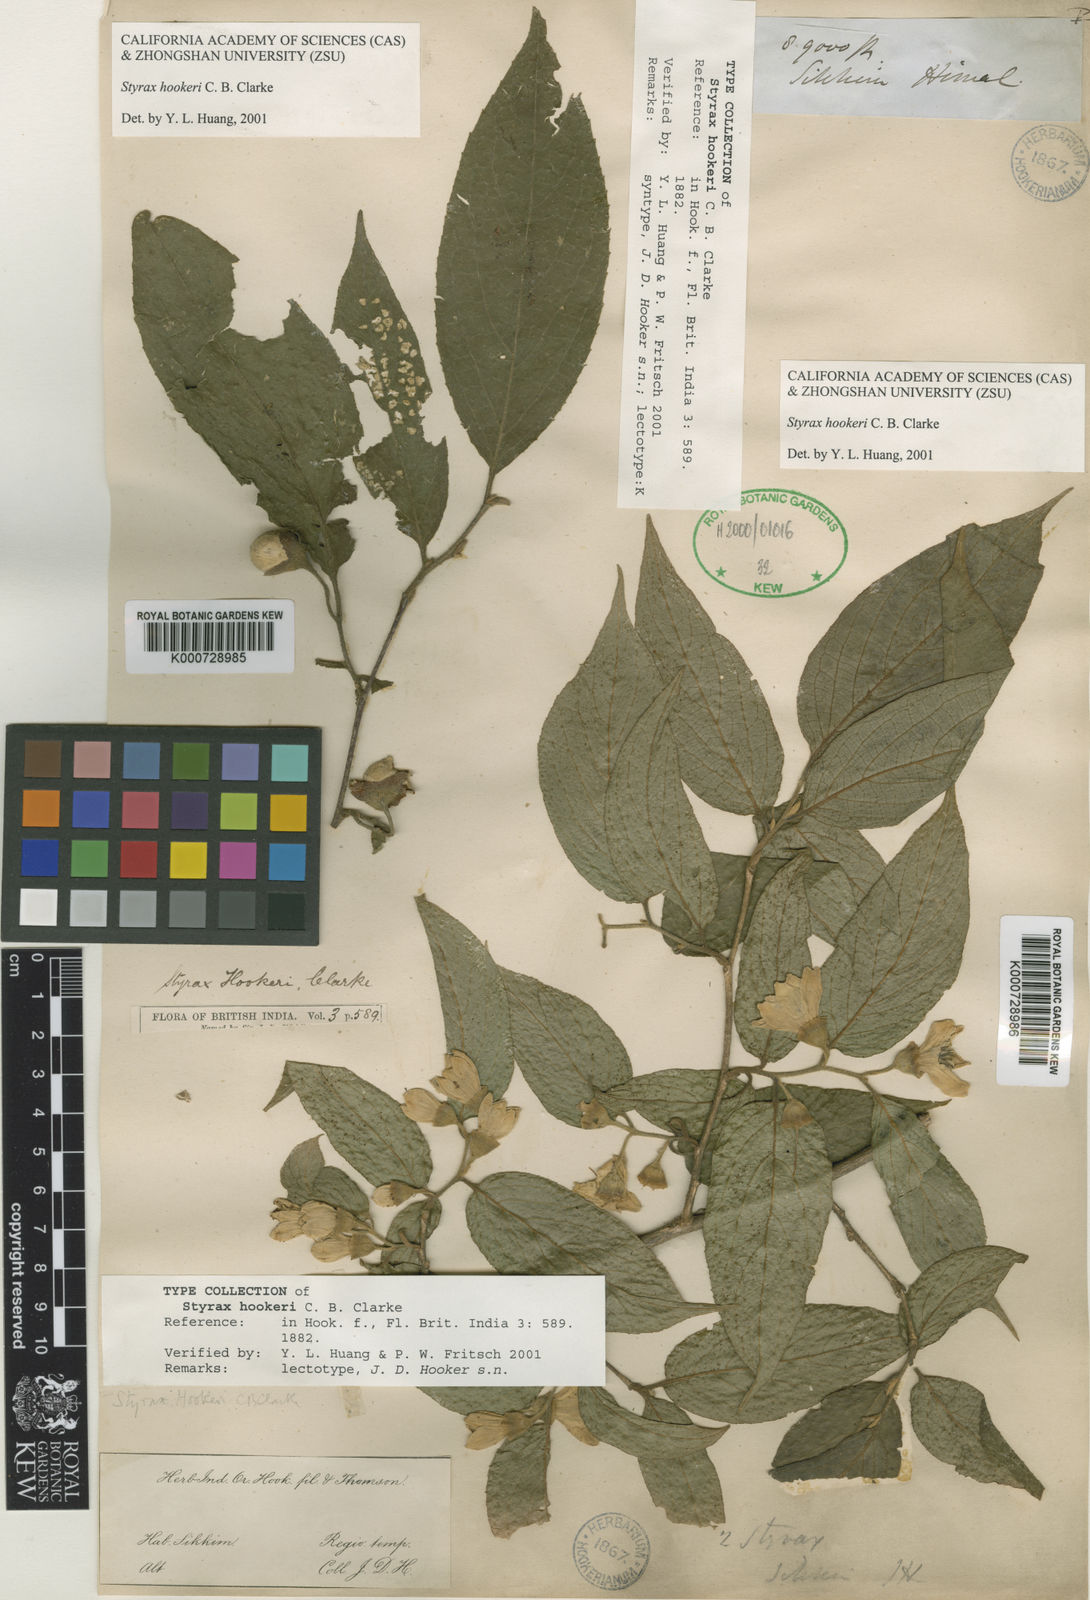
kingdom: Plantae
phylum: Tracheophyta
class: Magnoliopsida
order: Ericales
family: Styracaceae
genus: Styrax
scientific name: Styrax hookeri
